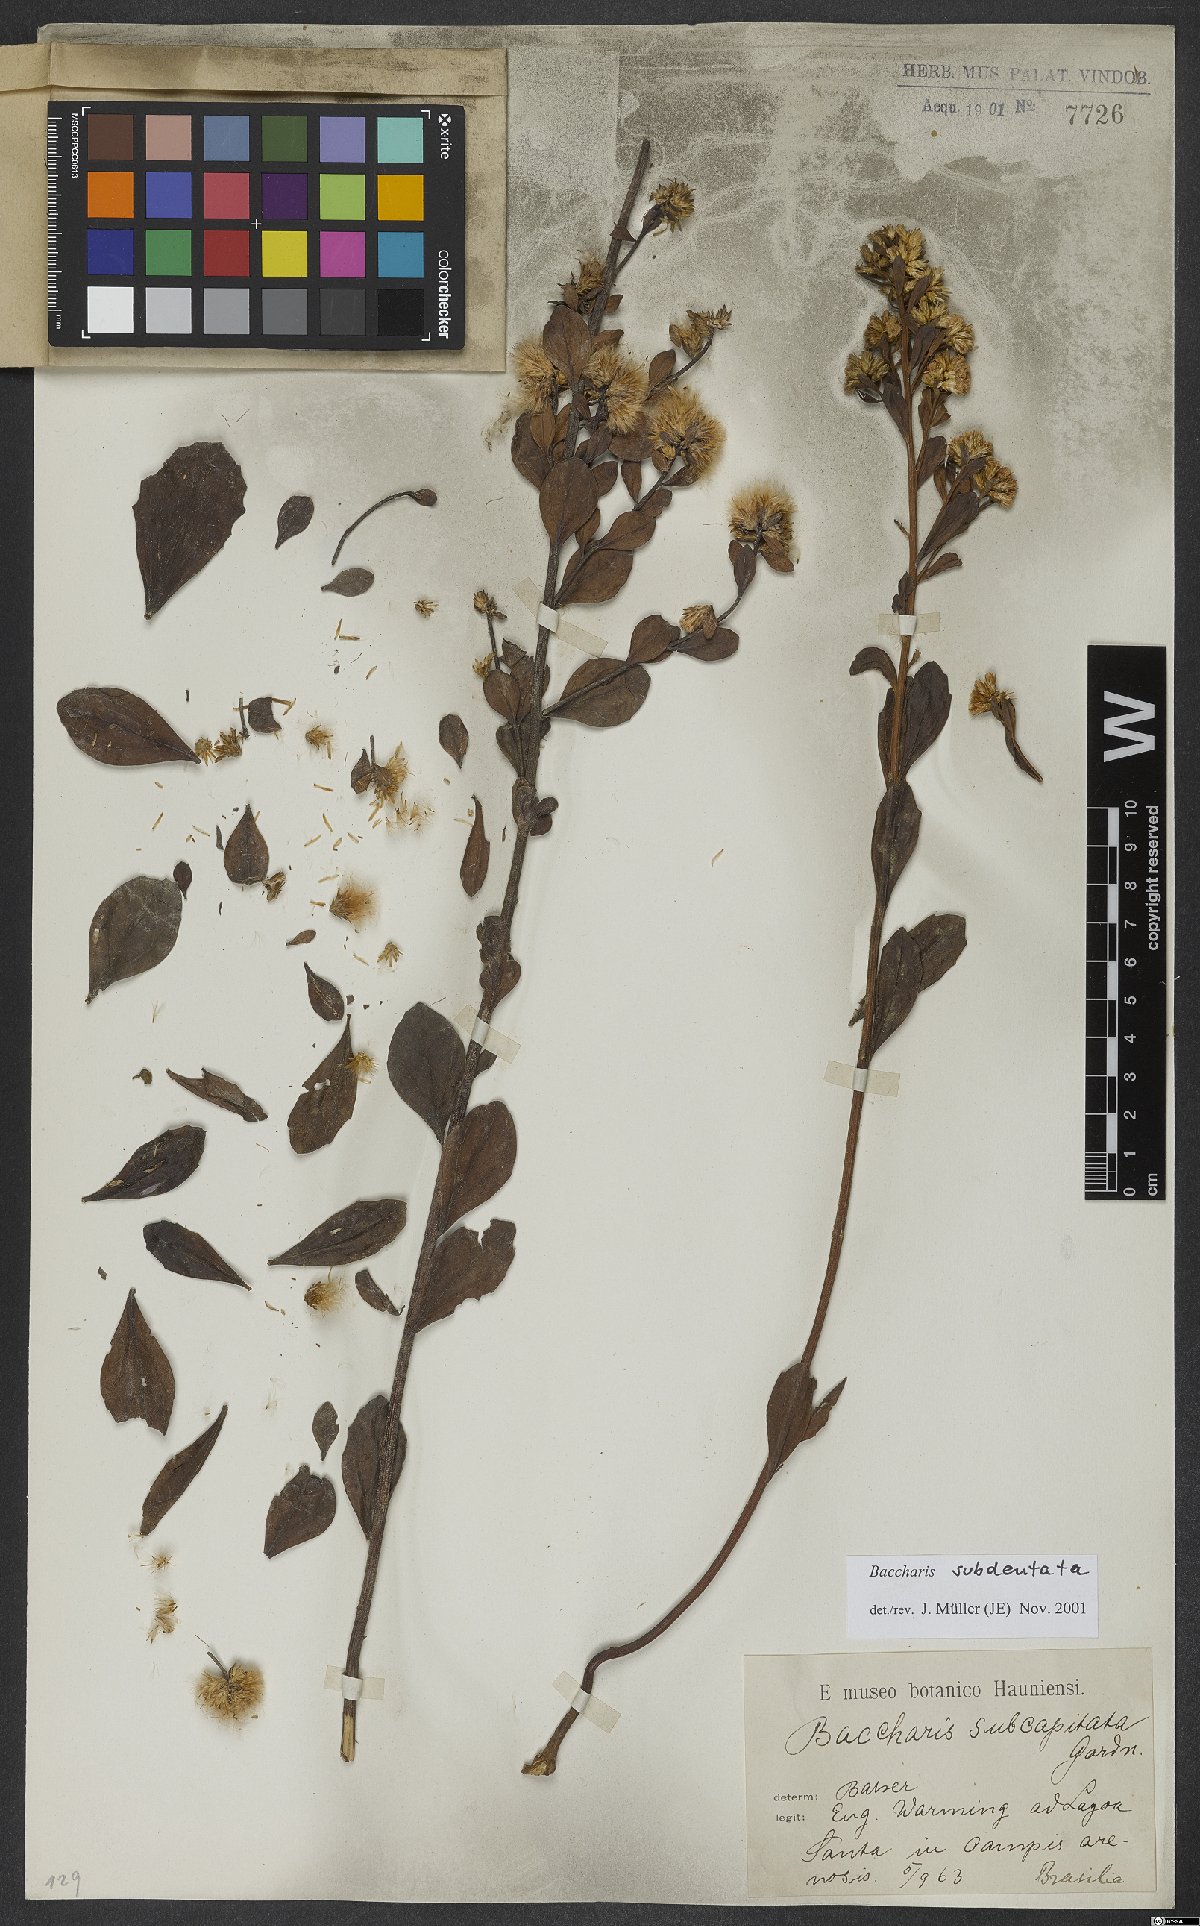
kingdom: Plantae
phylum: Tracheophyta
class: Magnoliopsida
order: Asterales
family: Asteraceae
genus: Baccharis
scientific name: Baccharis subdentata
